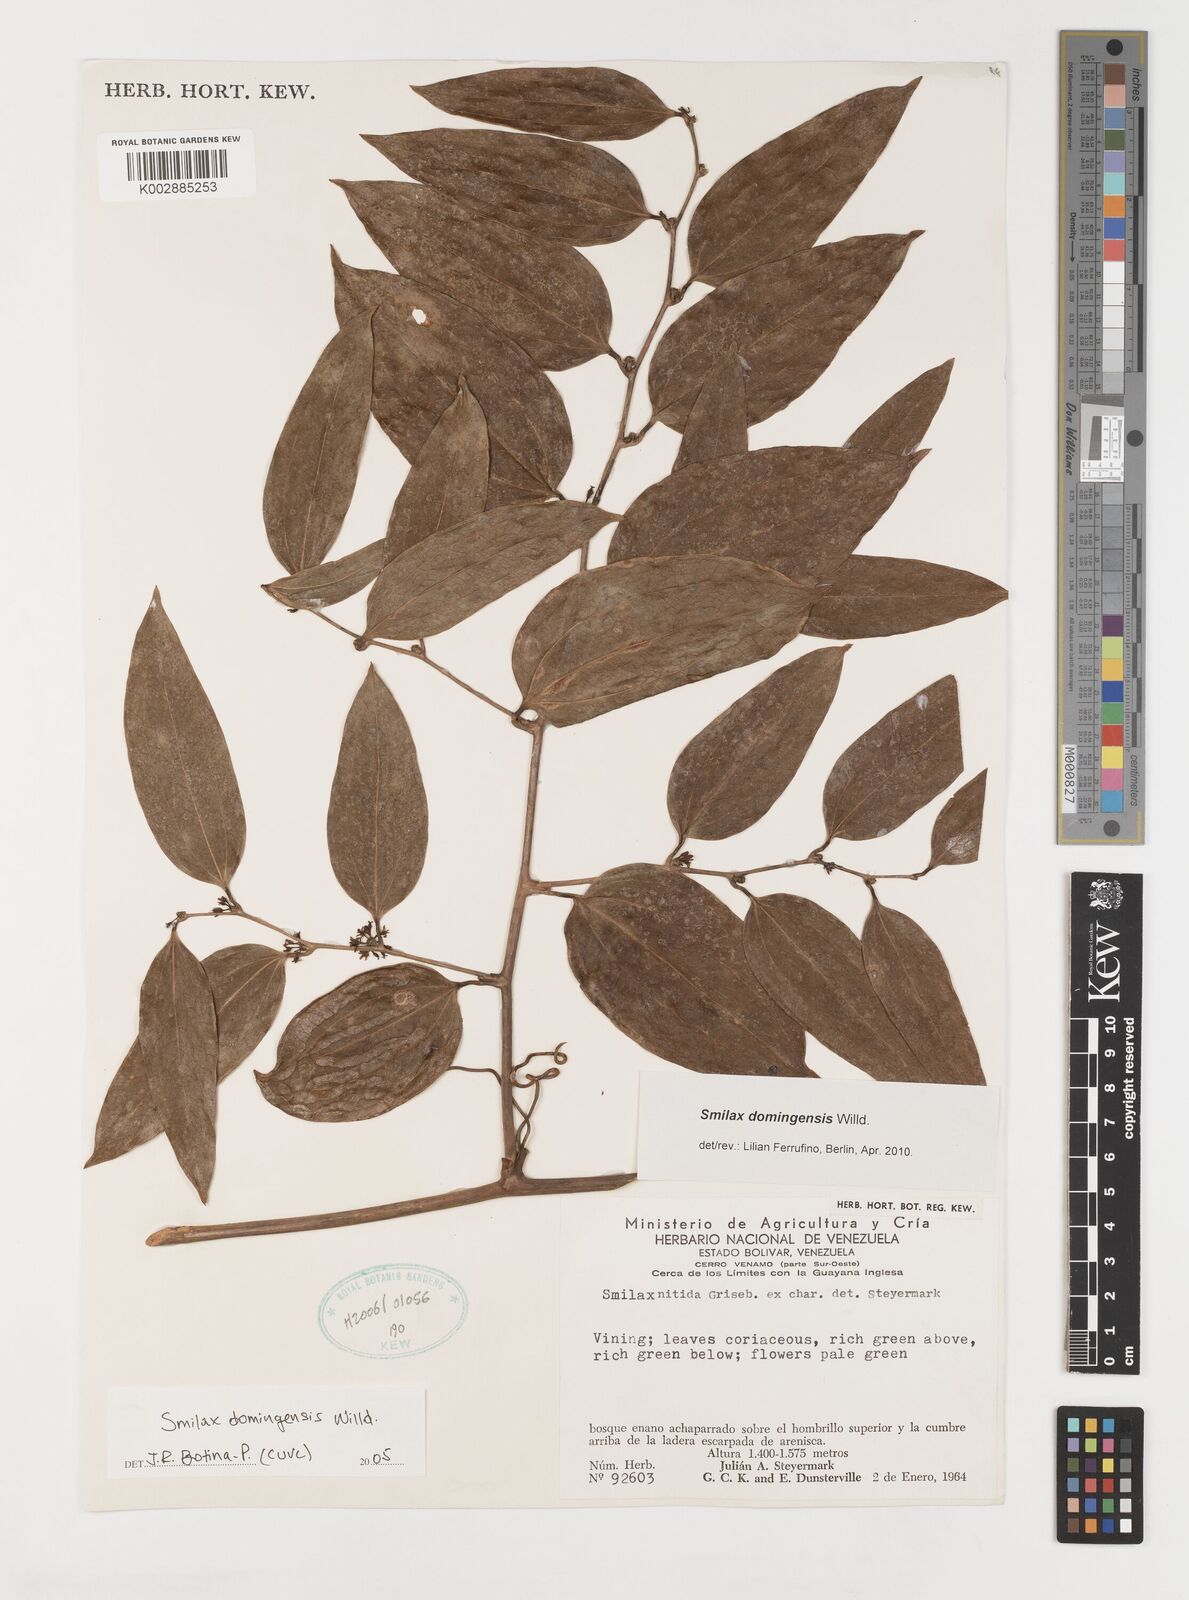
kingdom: Plantae
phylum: Tracheophyta
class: Liliopsida
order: Liliales
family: Smilacaceae
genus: Smilax
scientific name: Smilax domingensis
